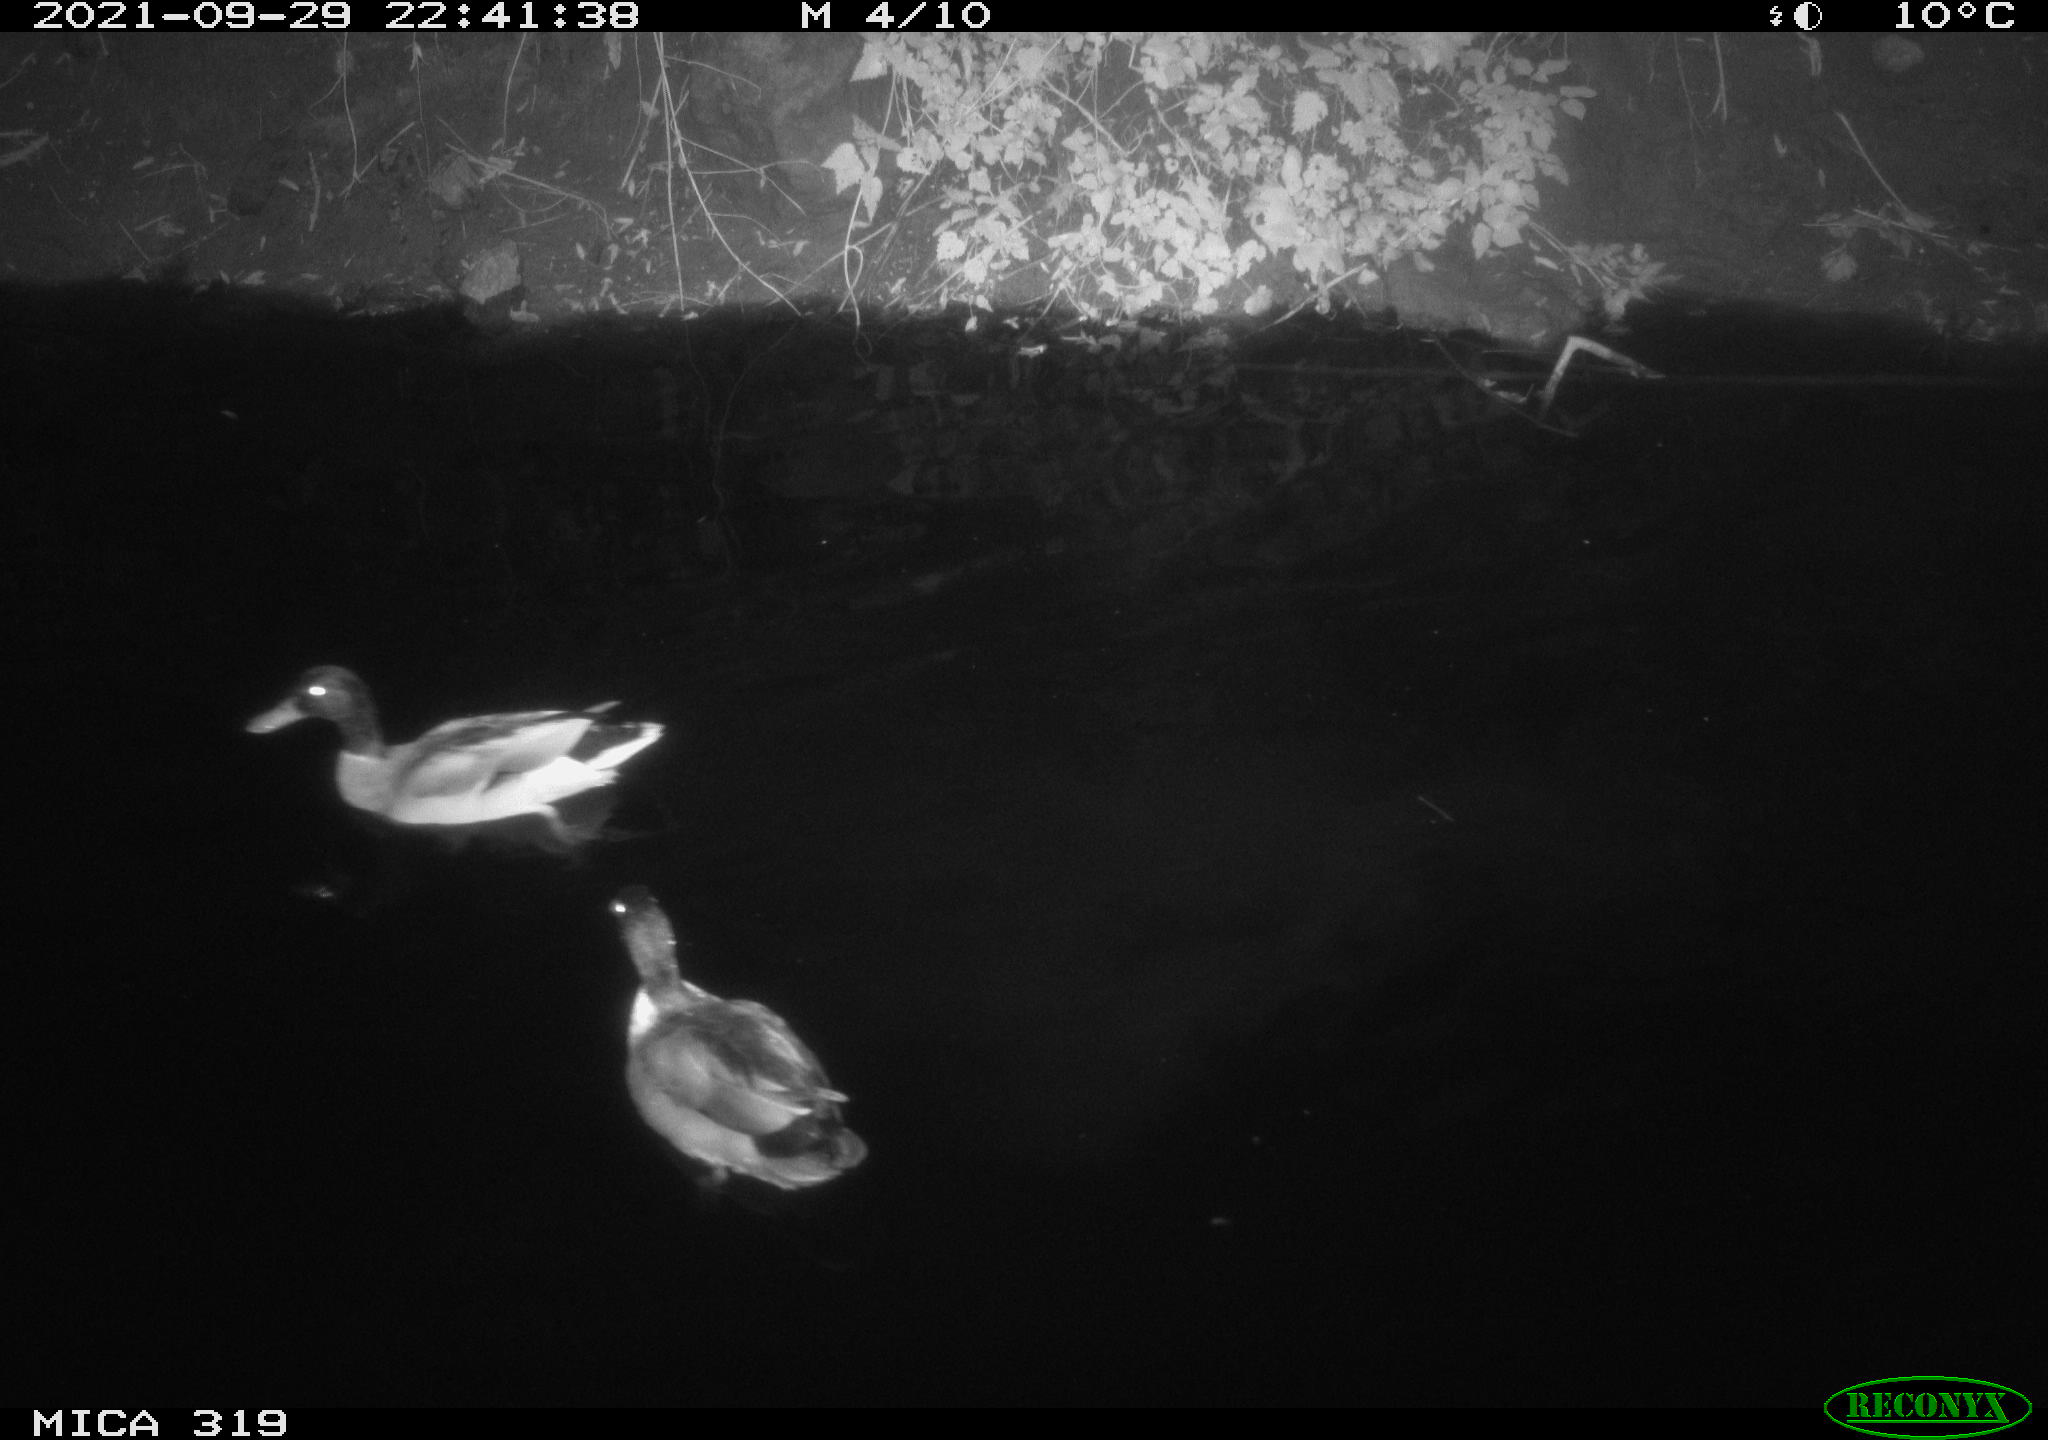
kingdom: Animalia
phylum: Chordata
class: Aves
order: Anseriformes
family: Anatidae
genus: Anas
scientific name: Anas platyrhynchos
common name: Mallard
